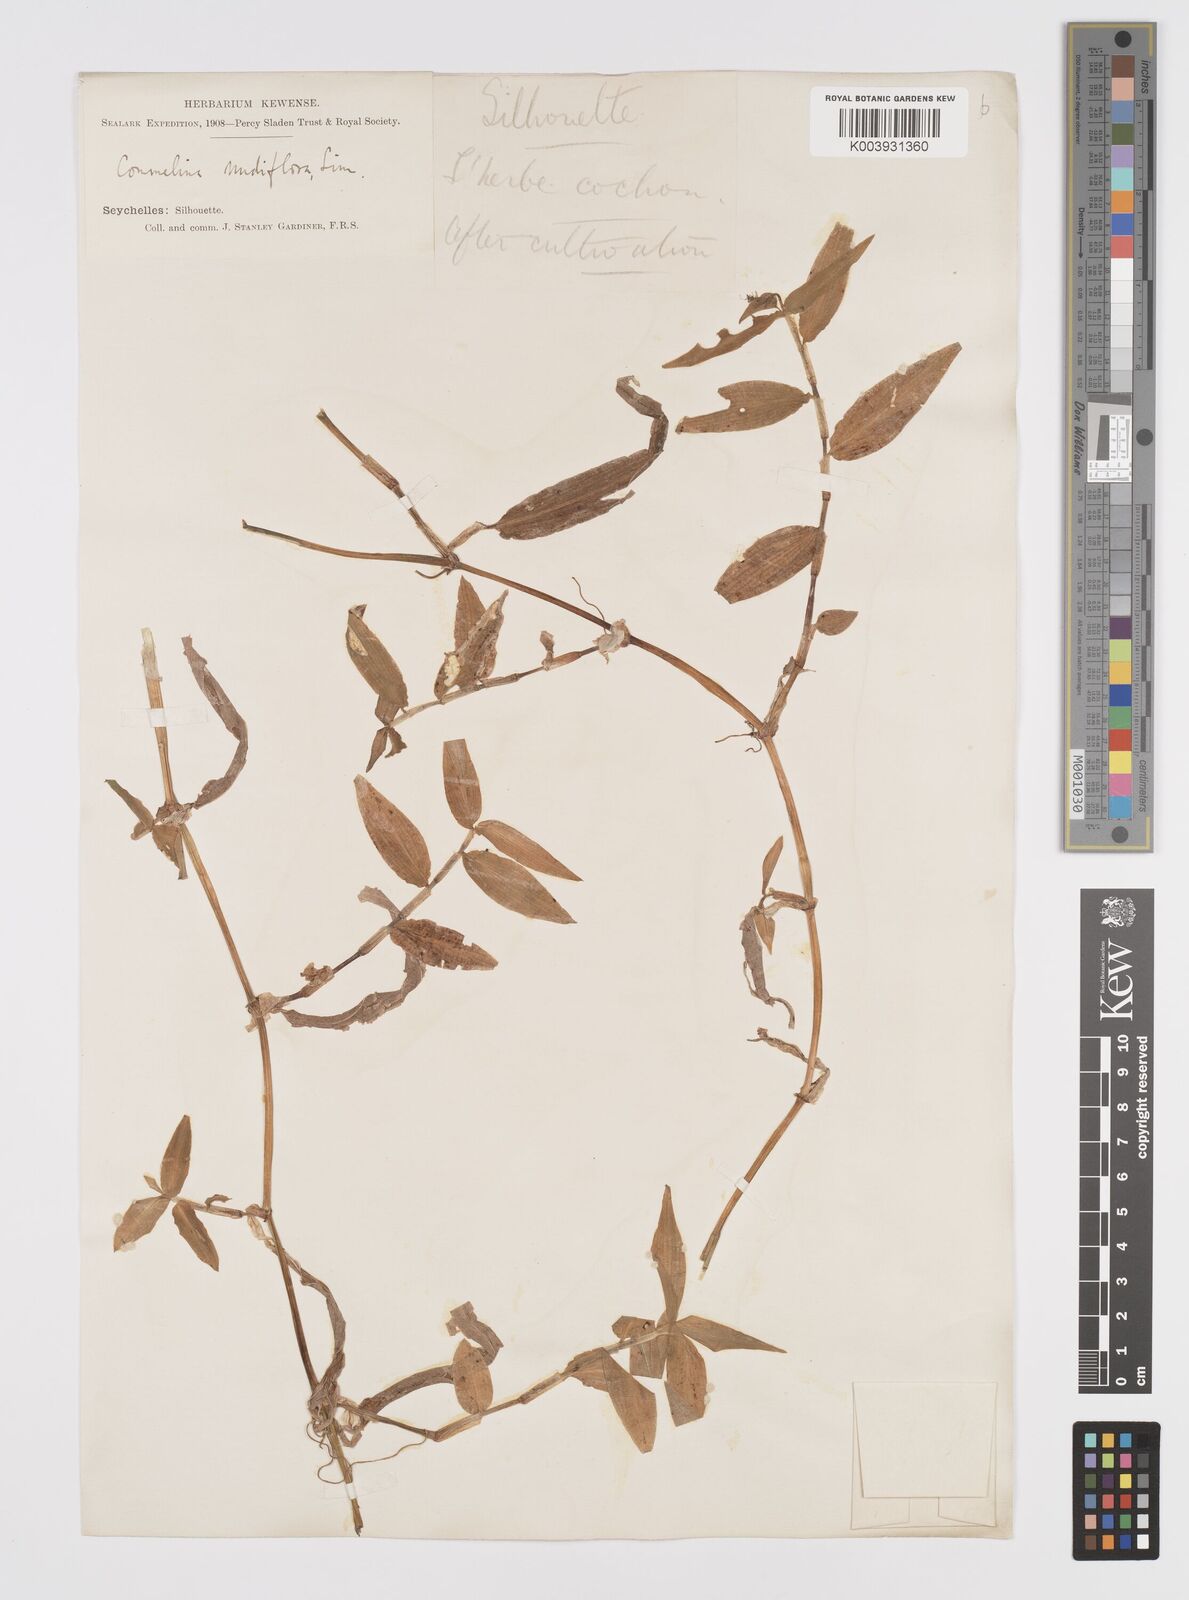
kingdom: Plantae
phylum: Tracheophyta
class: Liliopsida
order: Commelinales
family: Commelinaceae
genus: Murdannia
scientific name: Murdannia nudiflora
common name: Nakedstem dewflower
